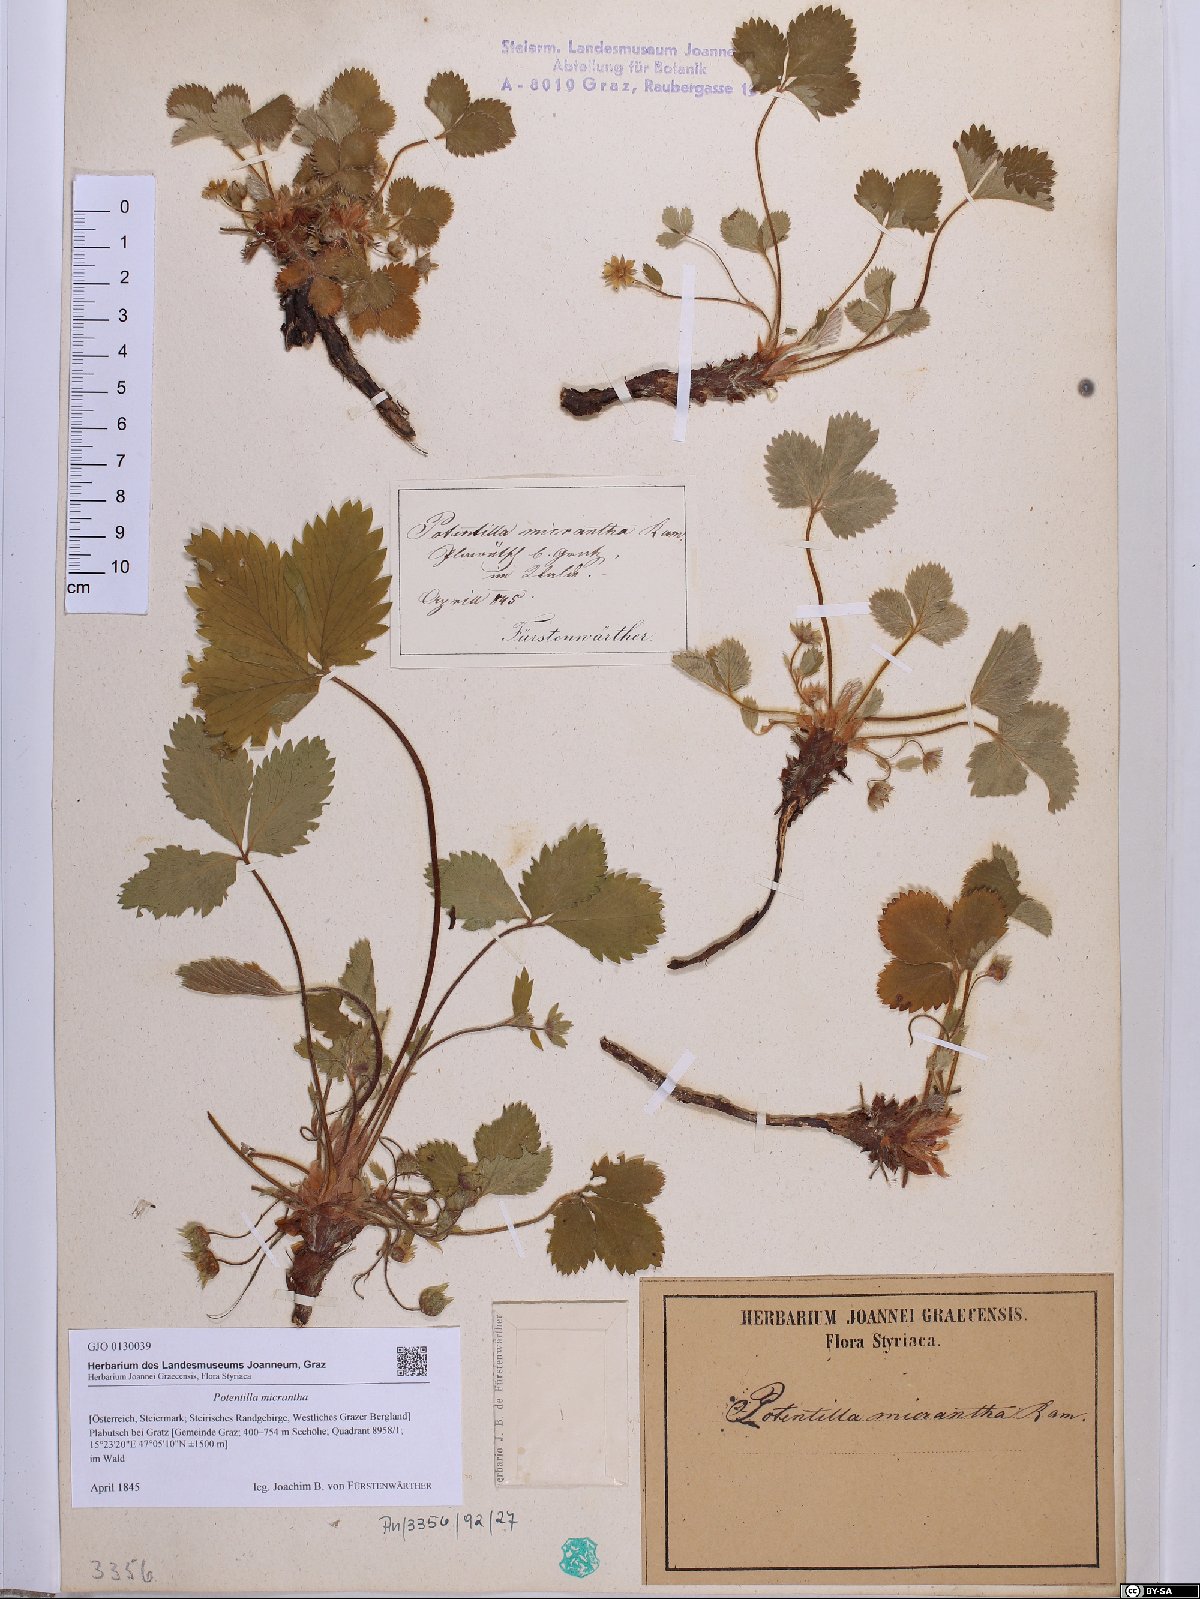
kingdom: Plantae
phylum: Tracheophyta
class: Magnoliopsida
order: Rosales
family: Rosaceae
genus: Potentilla
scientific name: Potentilla micrantha
